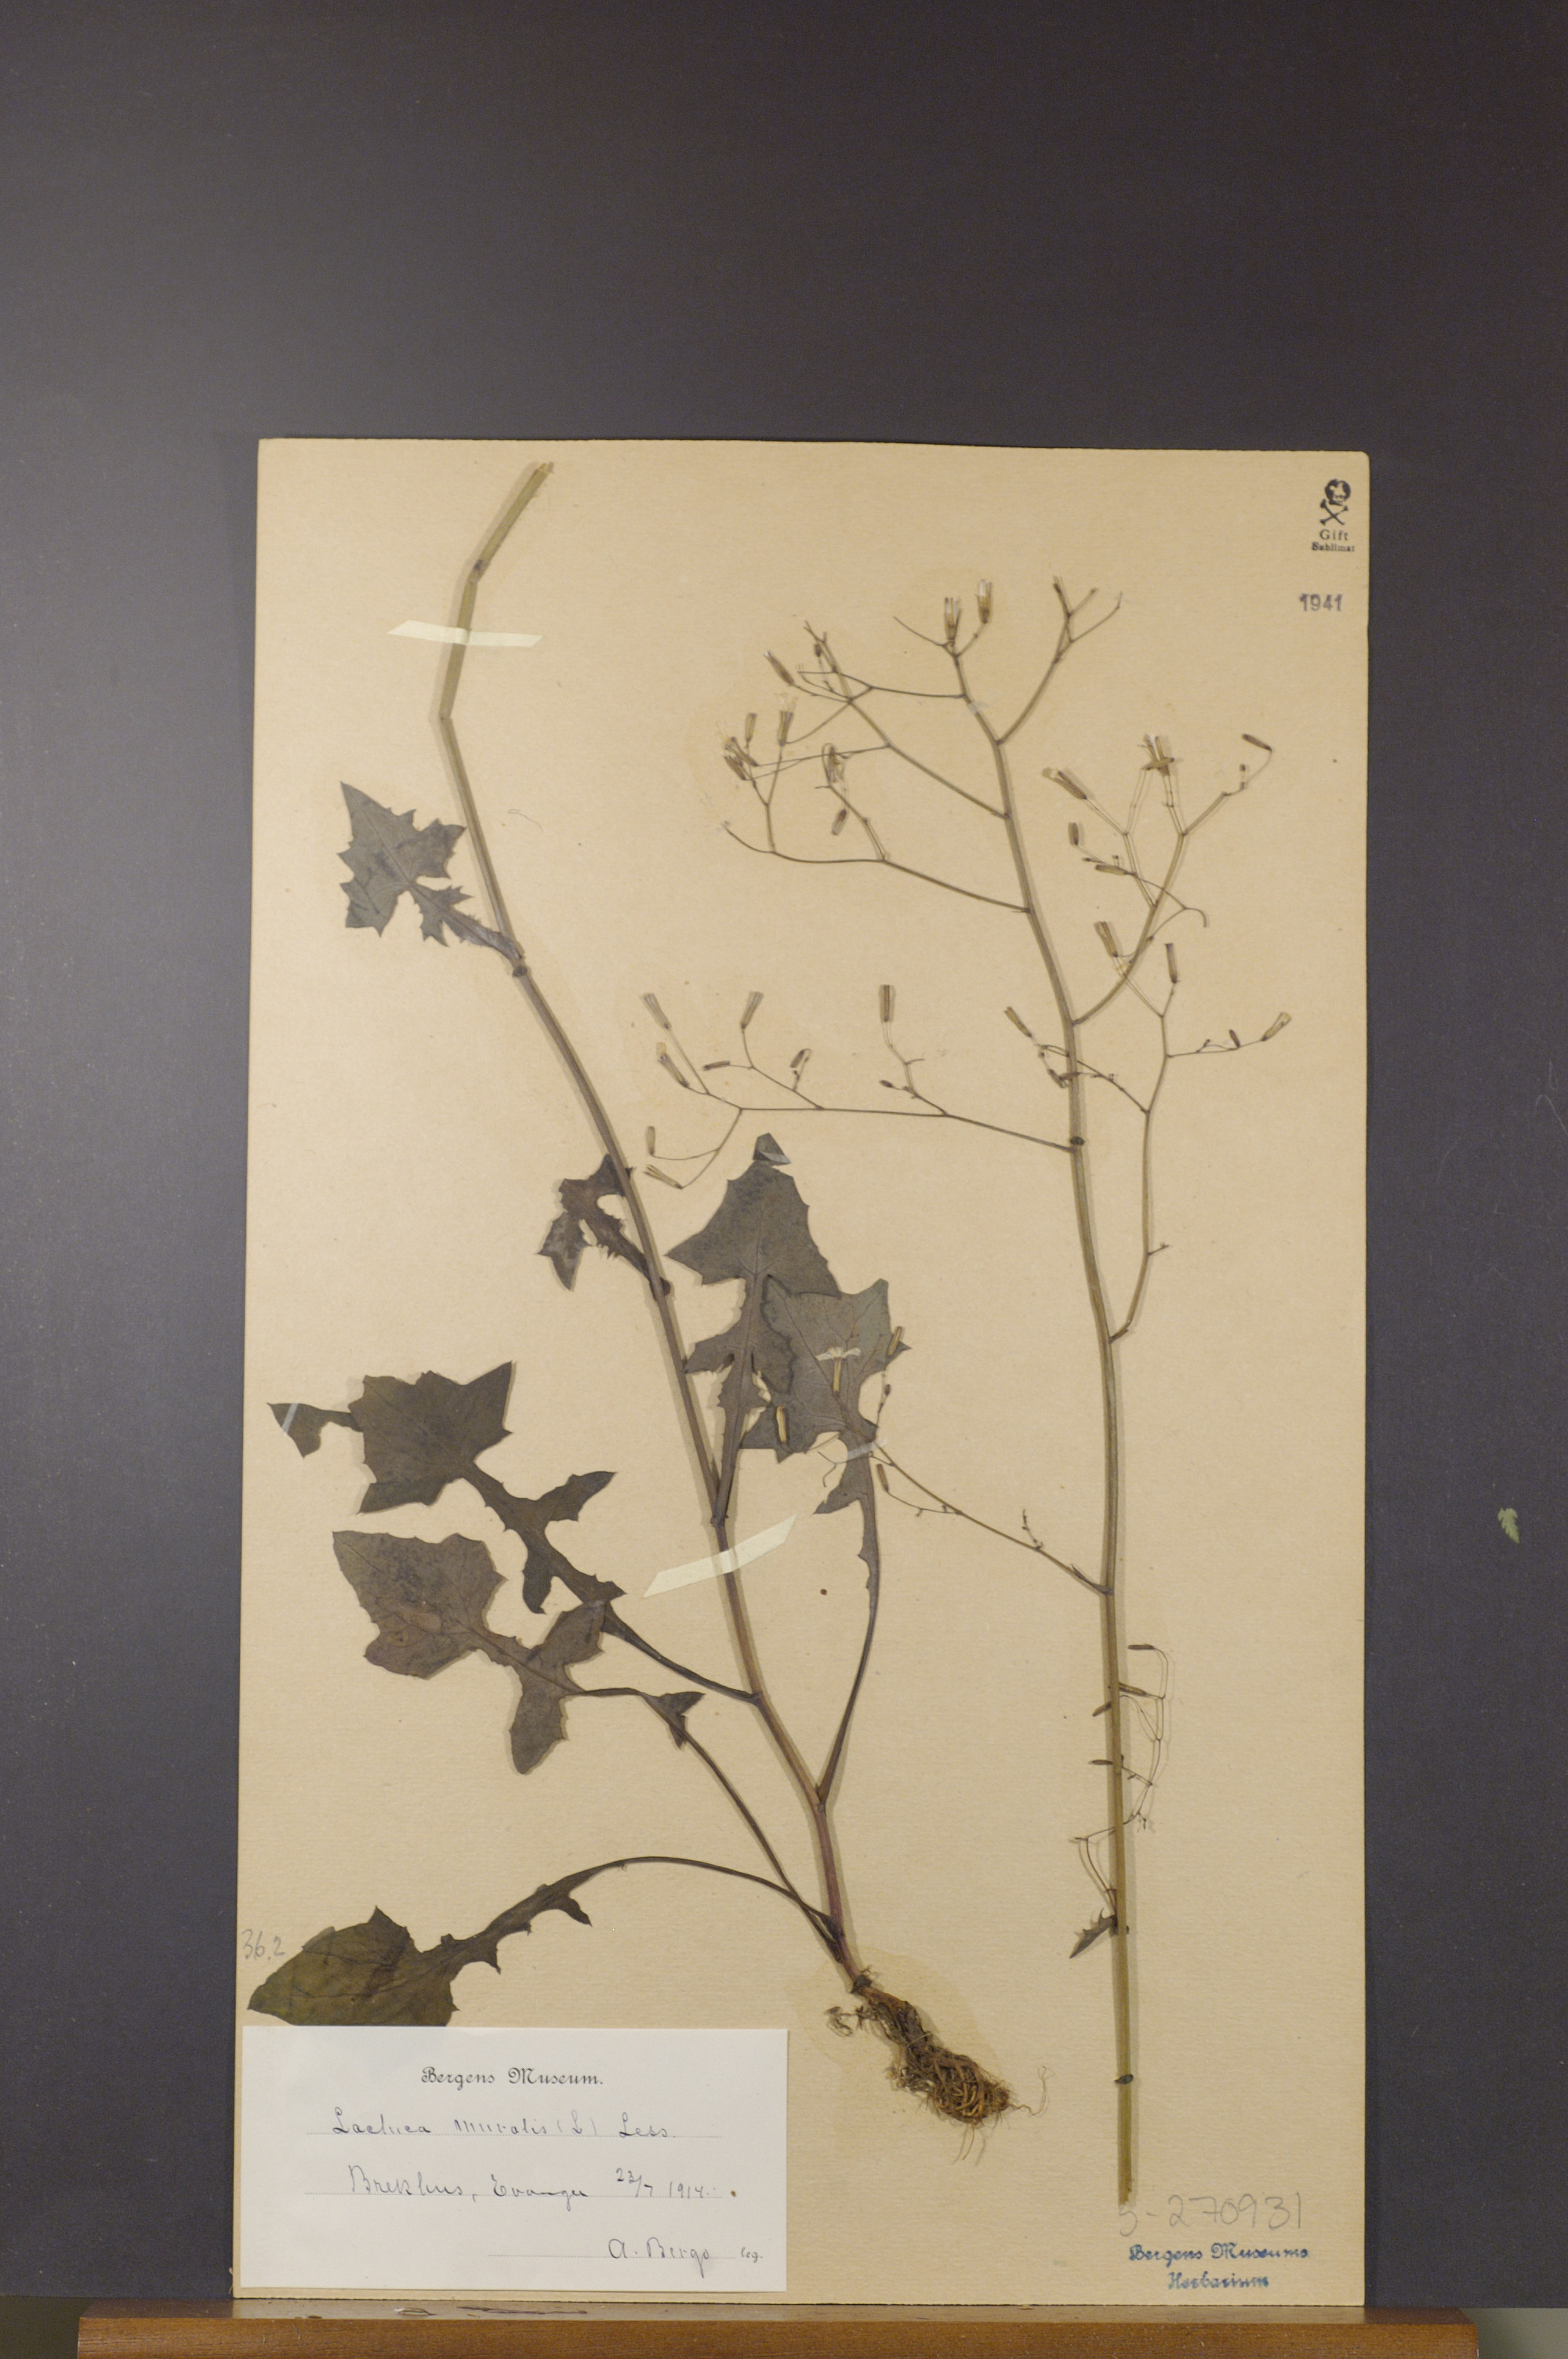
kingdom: Plantae
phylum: Tracheophyta
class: Magnoliopsida
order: Asterales
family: Asteraceae
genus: Mycelis
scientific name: Mycelis muralis
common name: Wall lettuce
